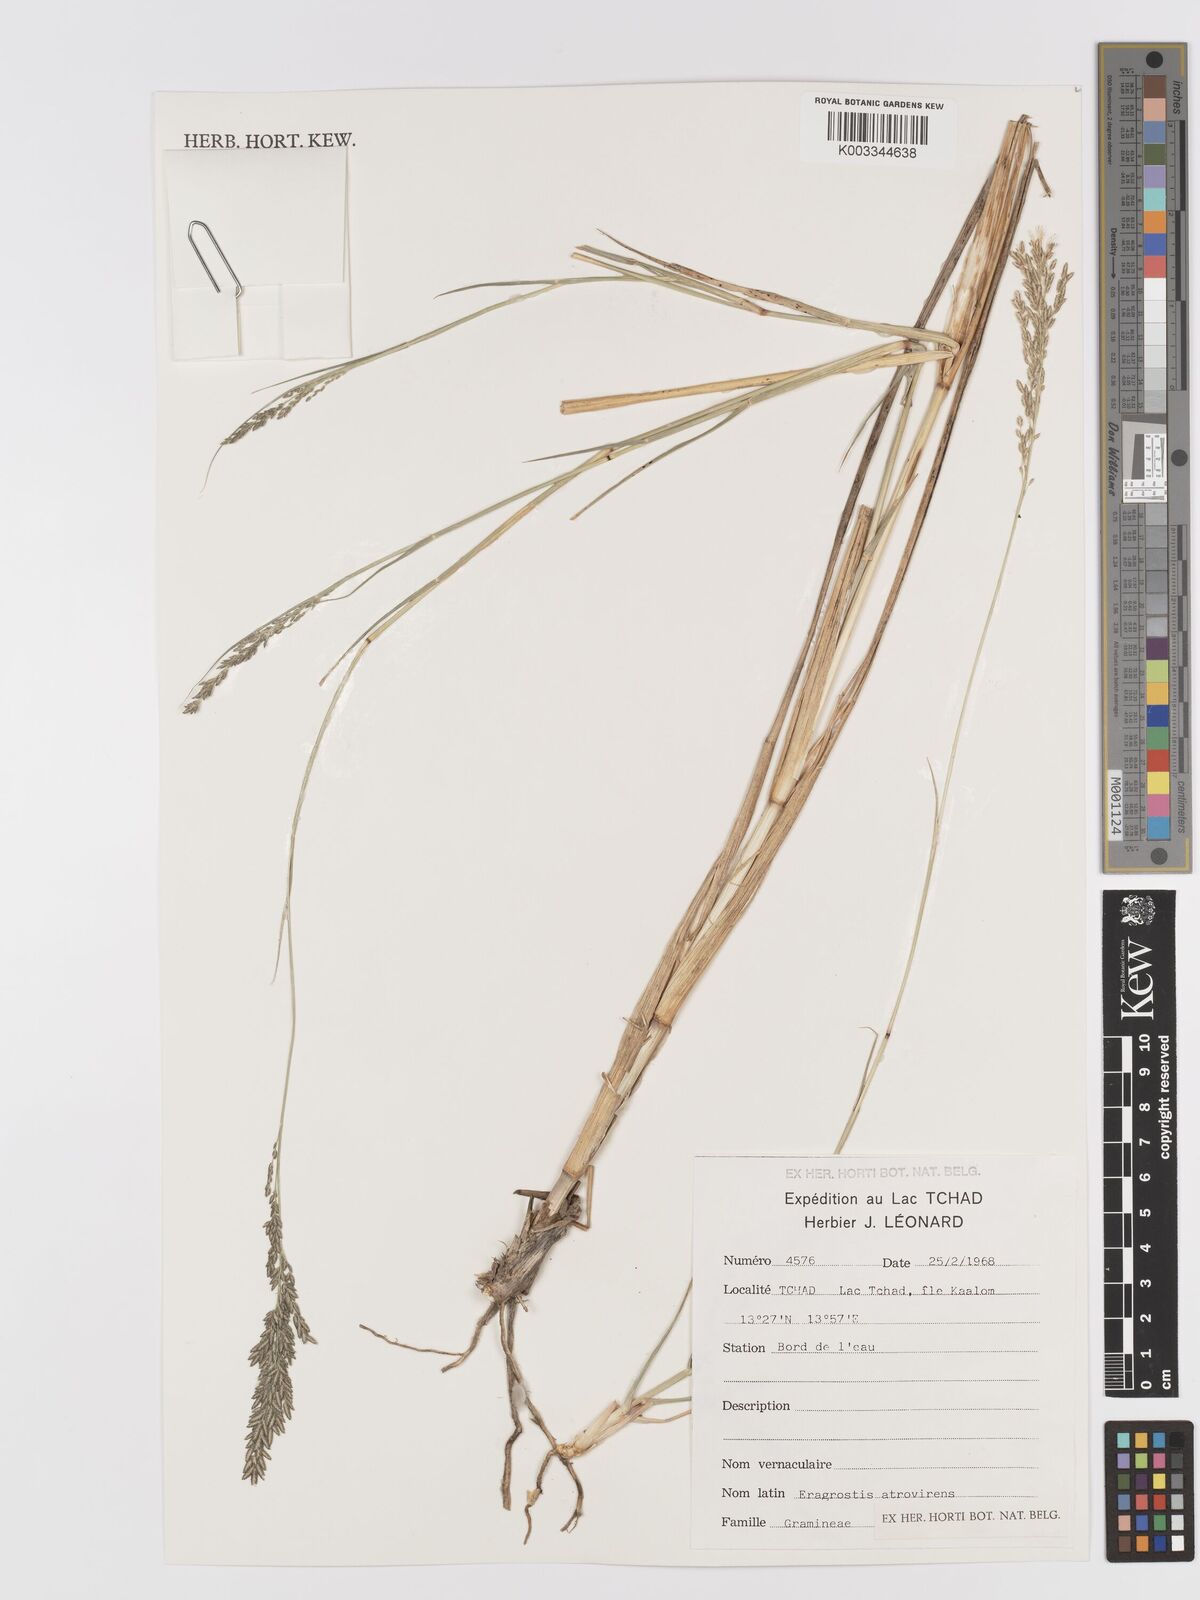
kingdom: Plantae
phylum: Tracheophyta
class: Liliopsida
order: Poales
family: Poaceae
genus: Eragrostis
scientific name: Eragrostis
